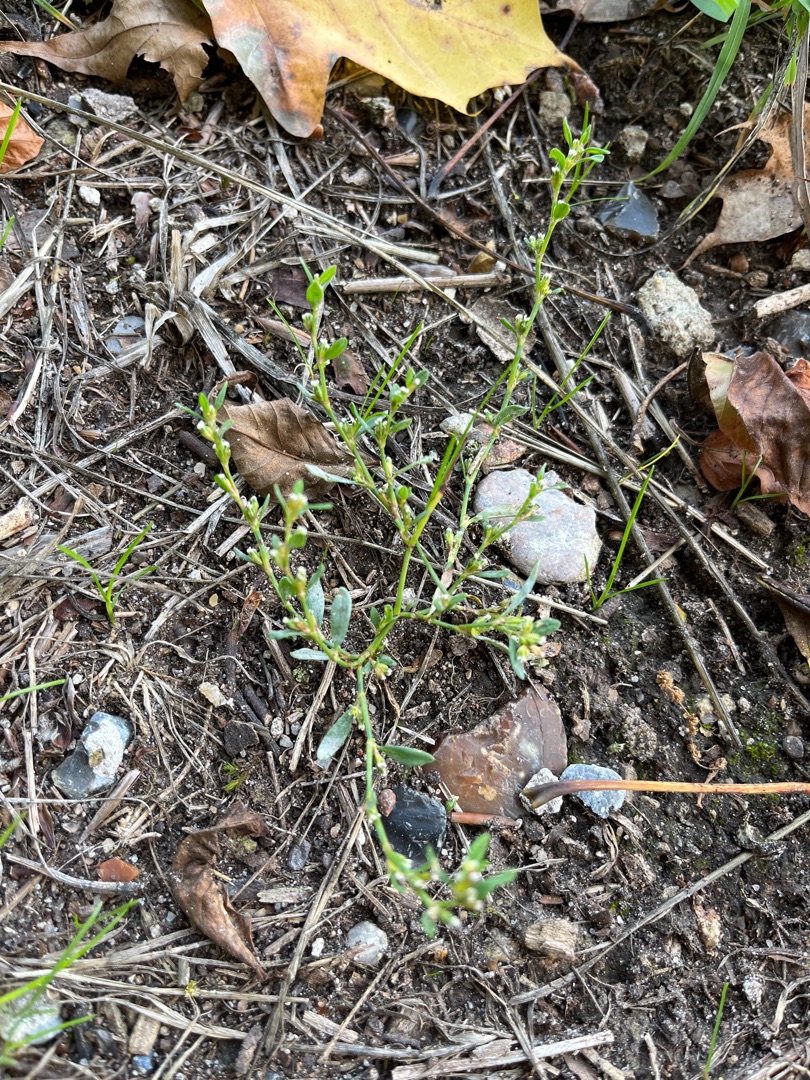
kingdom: Plantae
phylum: Tracheophyta
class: Magnoliopsida
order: Caryophyllales
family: Polygonaceae
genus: Polygonum
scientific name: Polygonum aviculare
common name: Vej-pileurt
